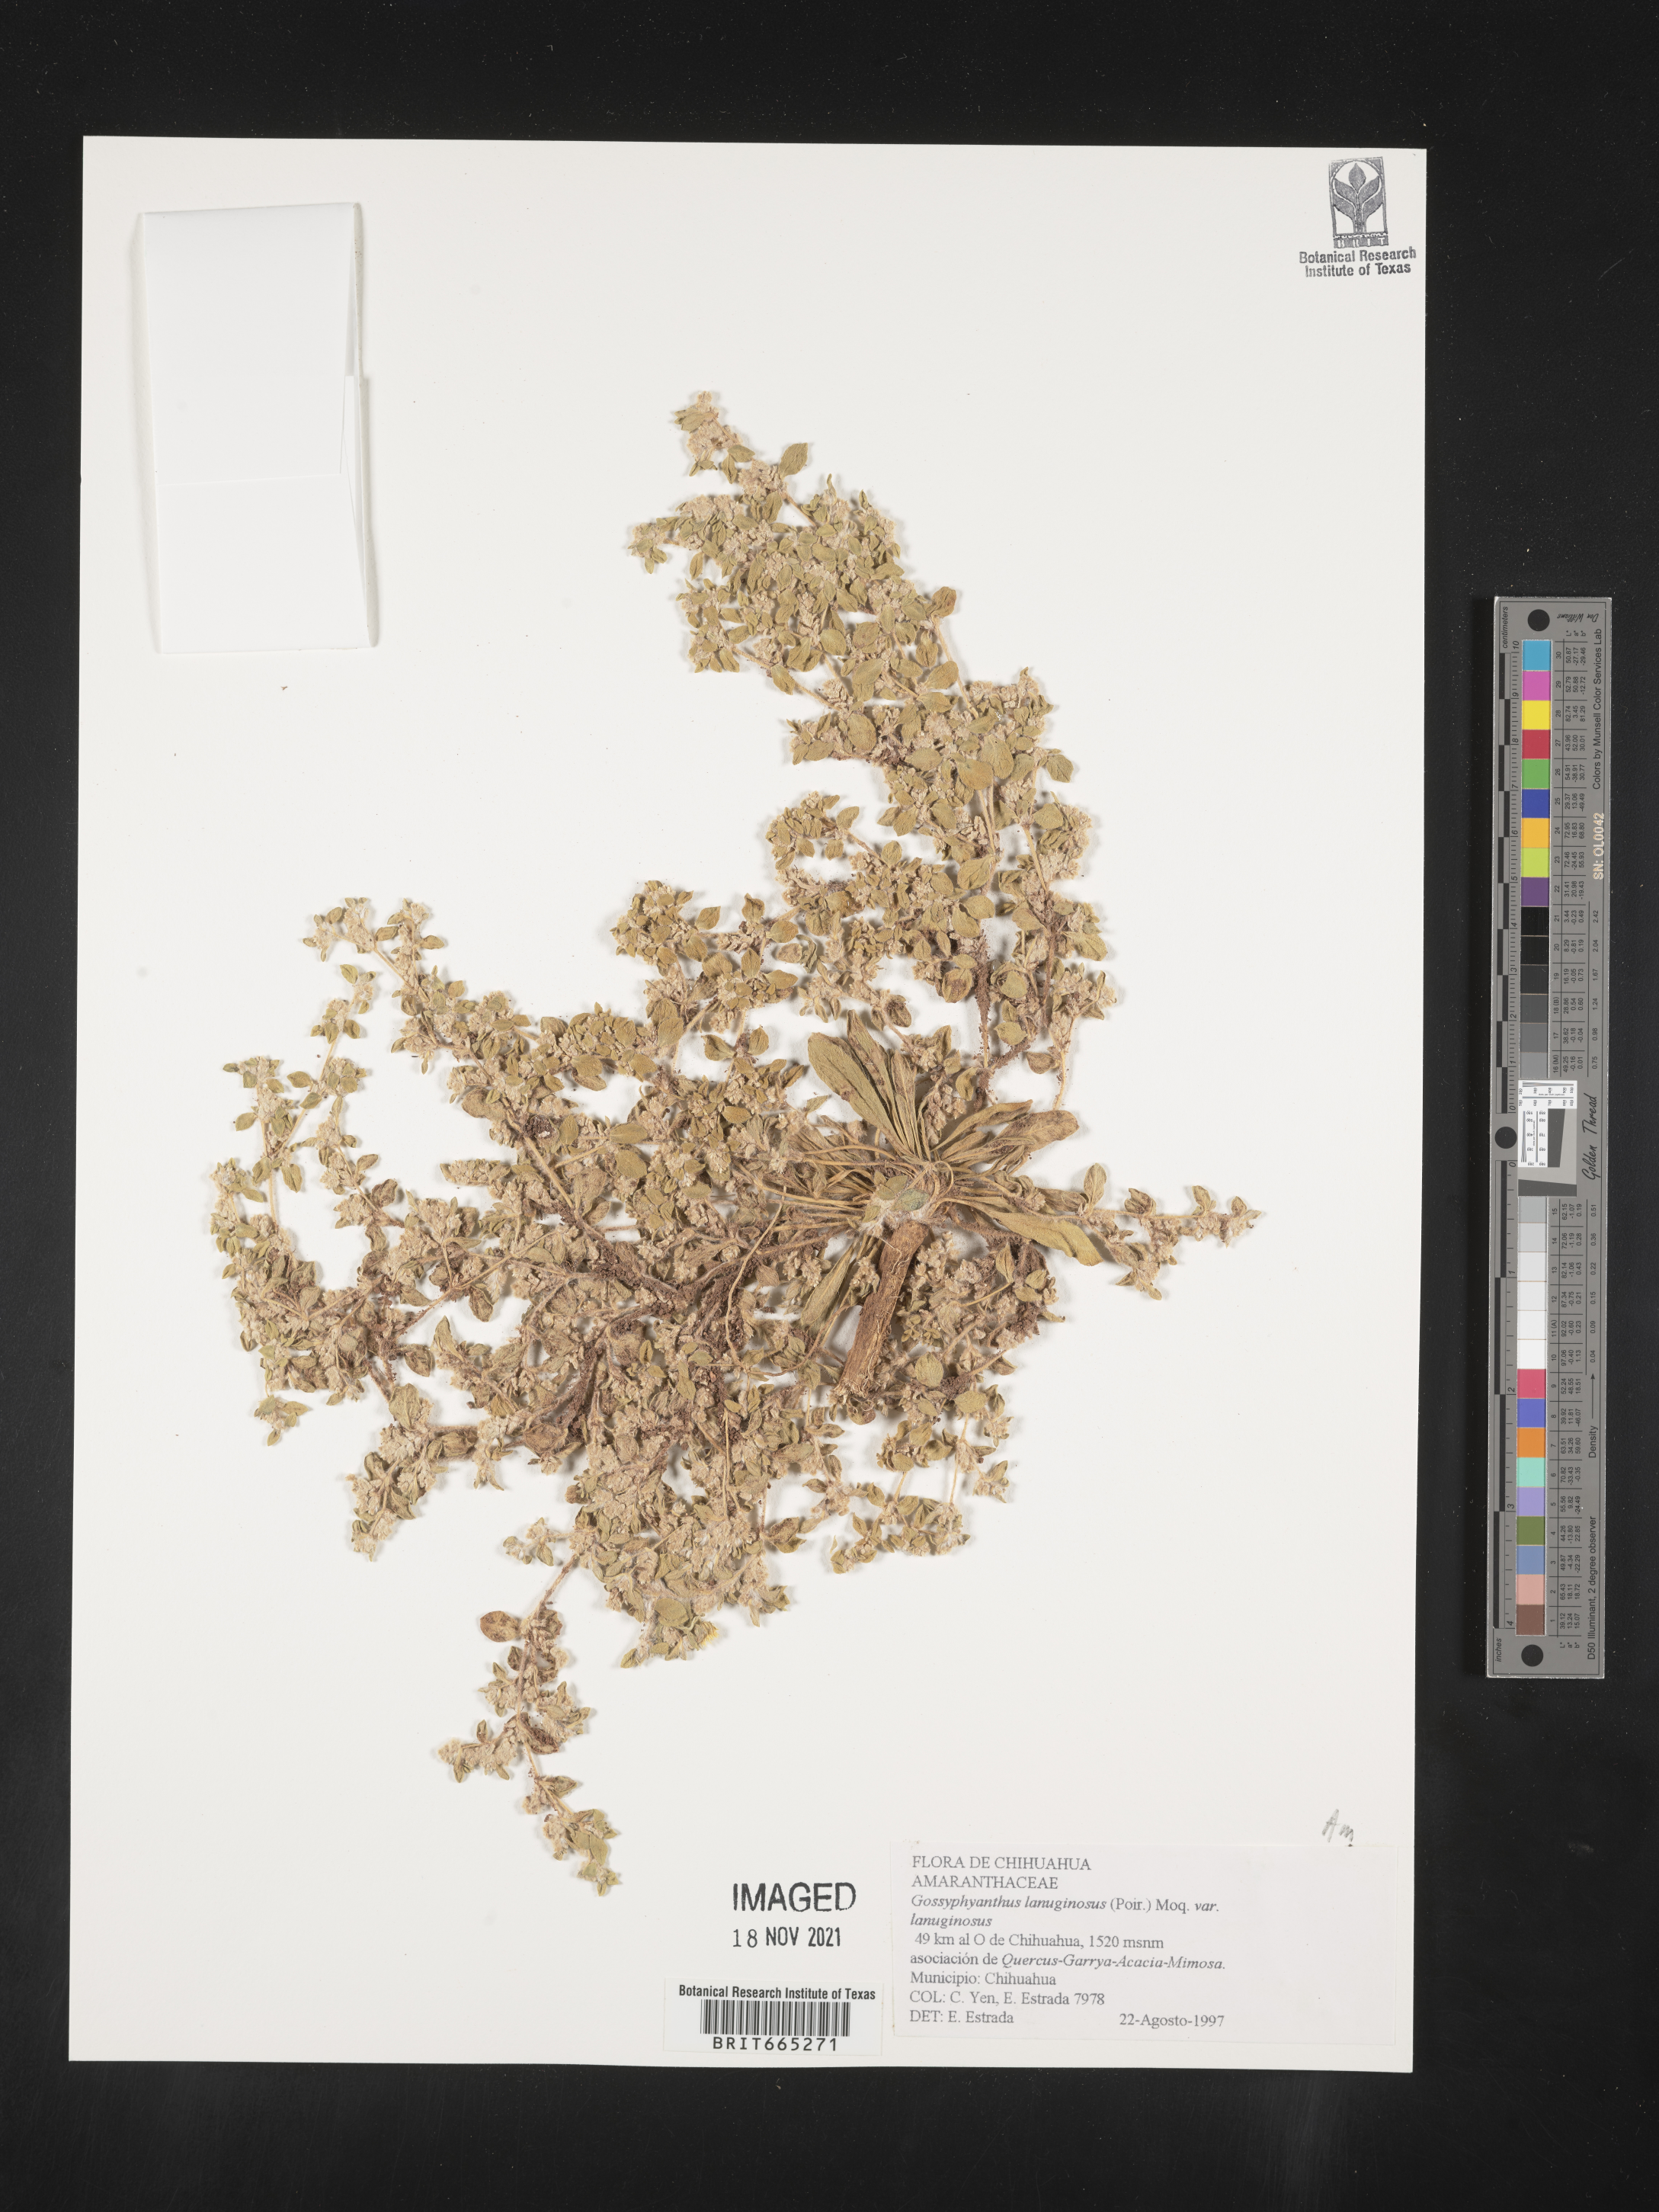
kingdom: Plantae
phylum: Tracheophyta
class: Magnoliopsida
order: Caryophyllales
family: Amaranthaceae
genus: Gomphrena
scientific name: Gomphrena lanuparonychioides
